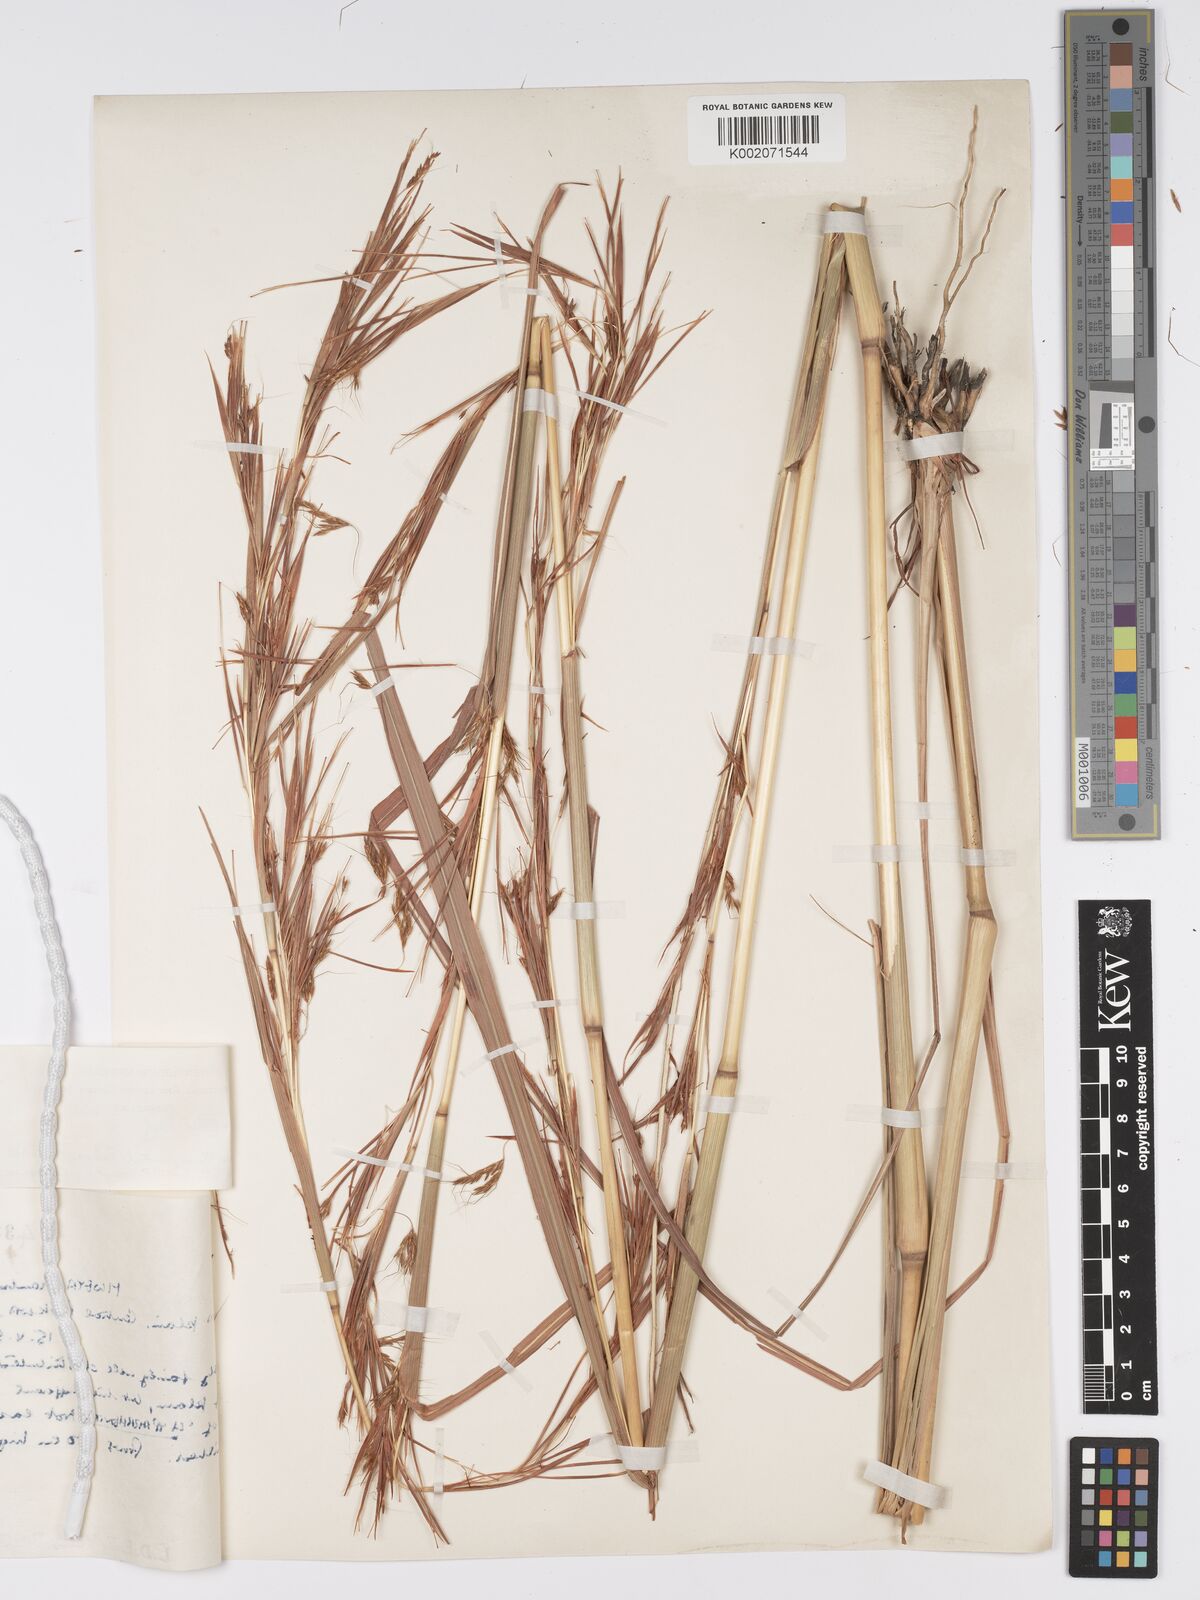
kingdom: Plantae
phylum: Tracheophyta
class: Liliopsida
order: Poales
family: Poaceae
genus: Hyparrhenia
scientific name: Hyparrhenia rufa
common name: Jaraguagrass
